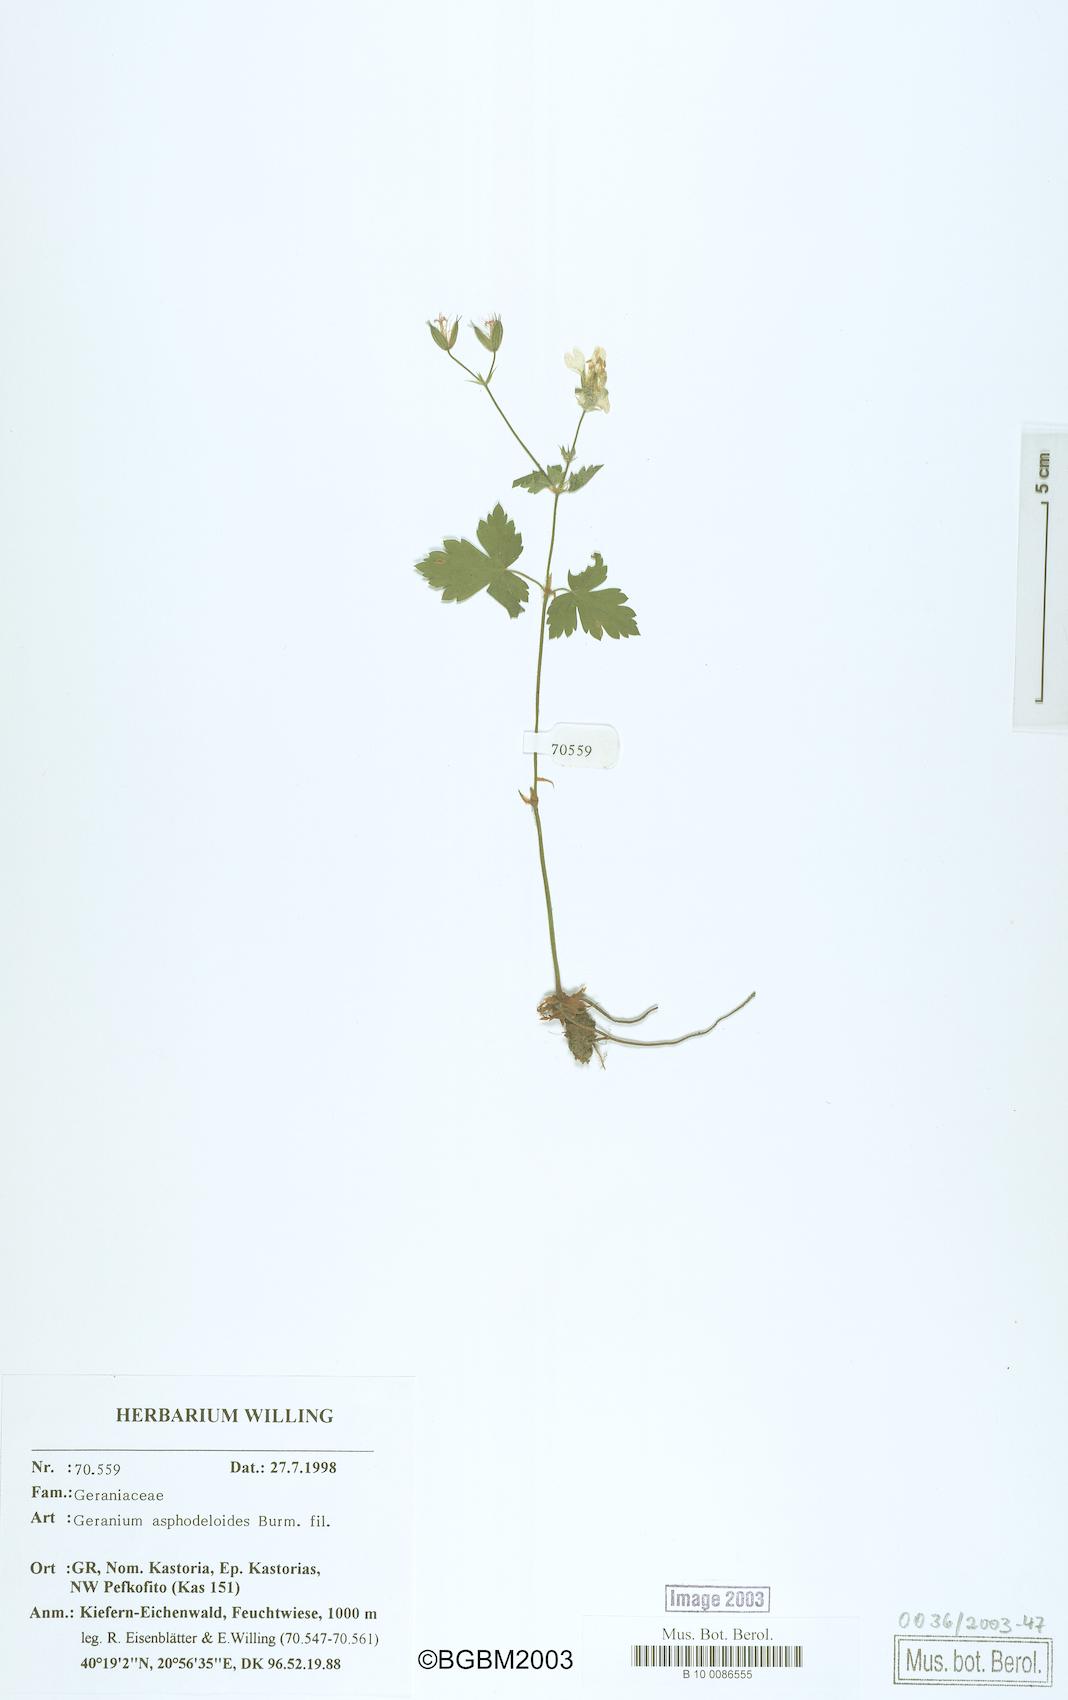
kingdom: Plantae
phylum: Tracheophyta
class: Magnoliopsida
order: Geraniales
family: Geraniaceae
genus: Geranium
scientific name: Geranium asphodeloides
